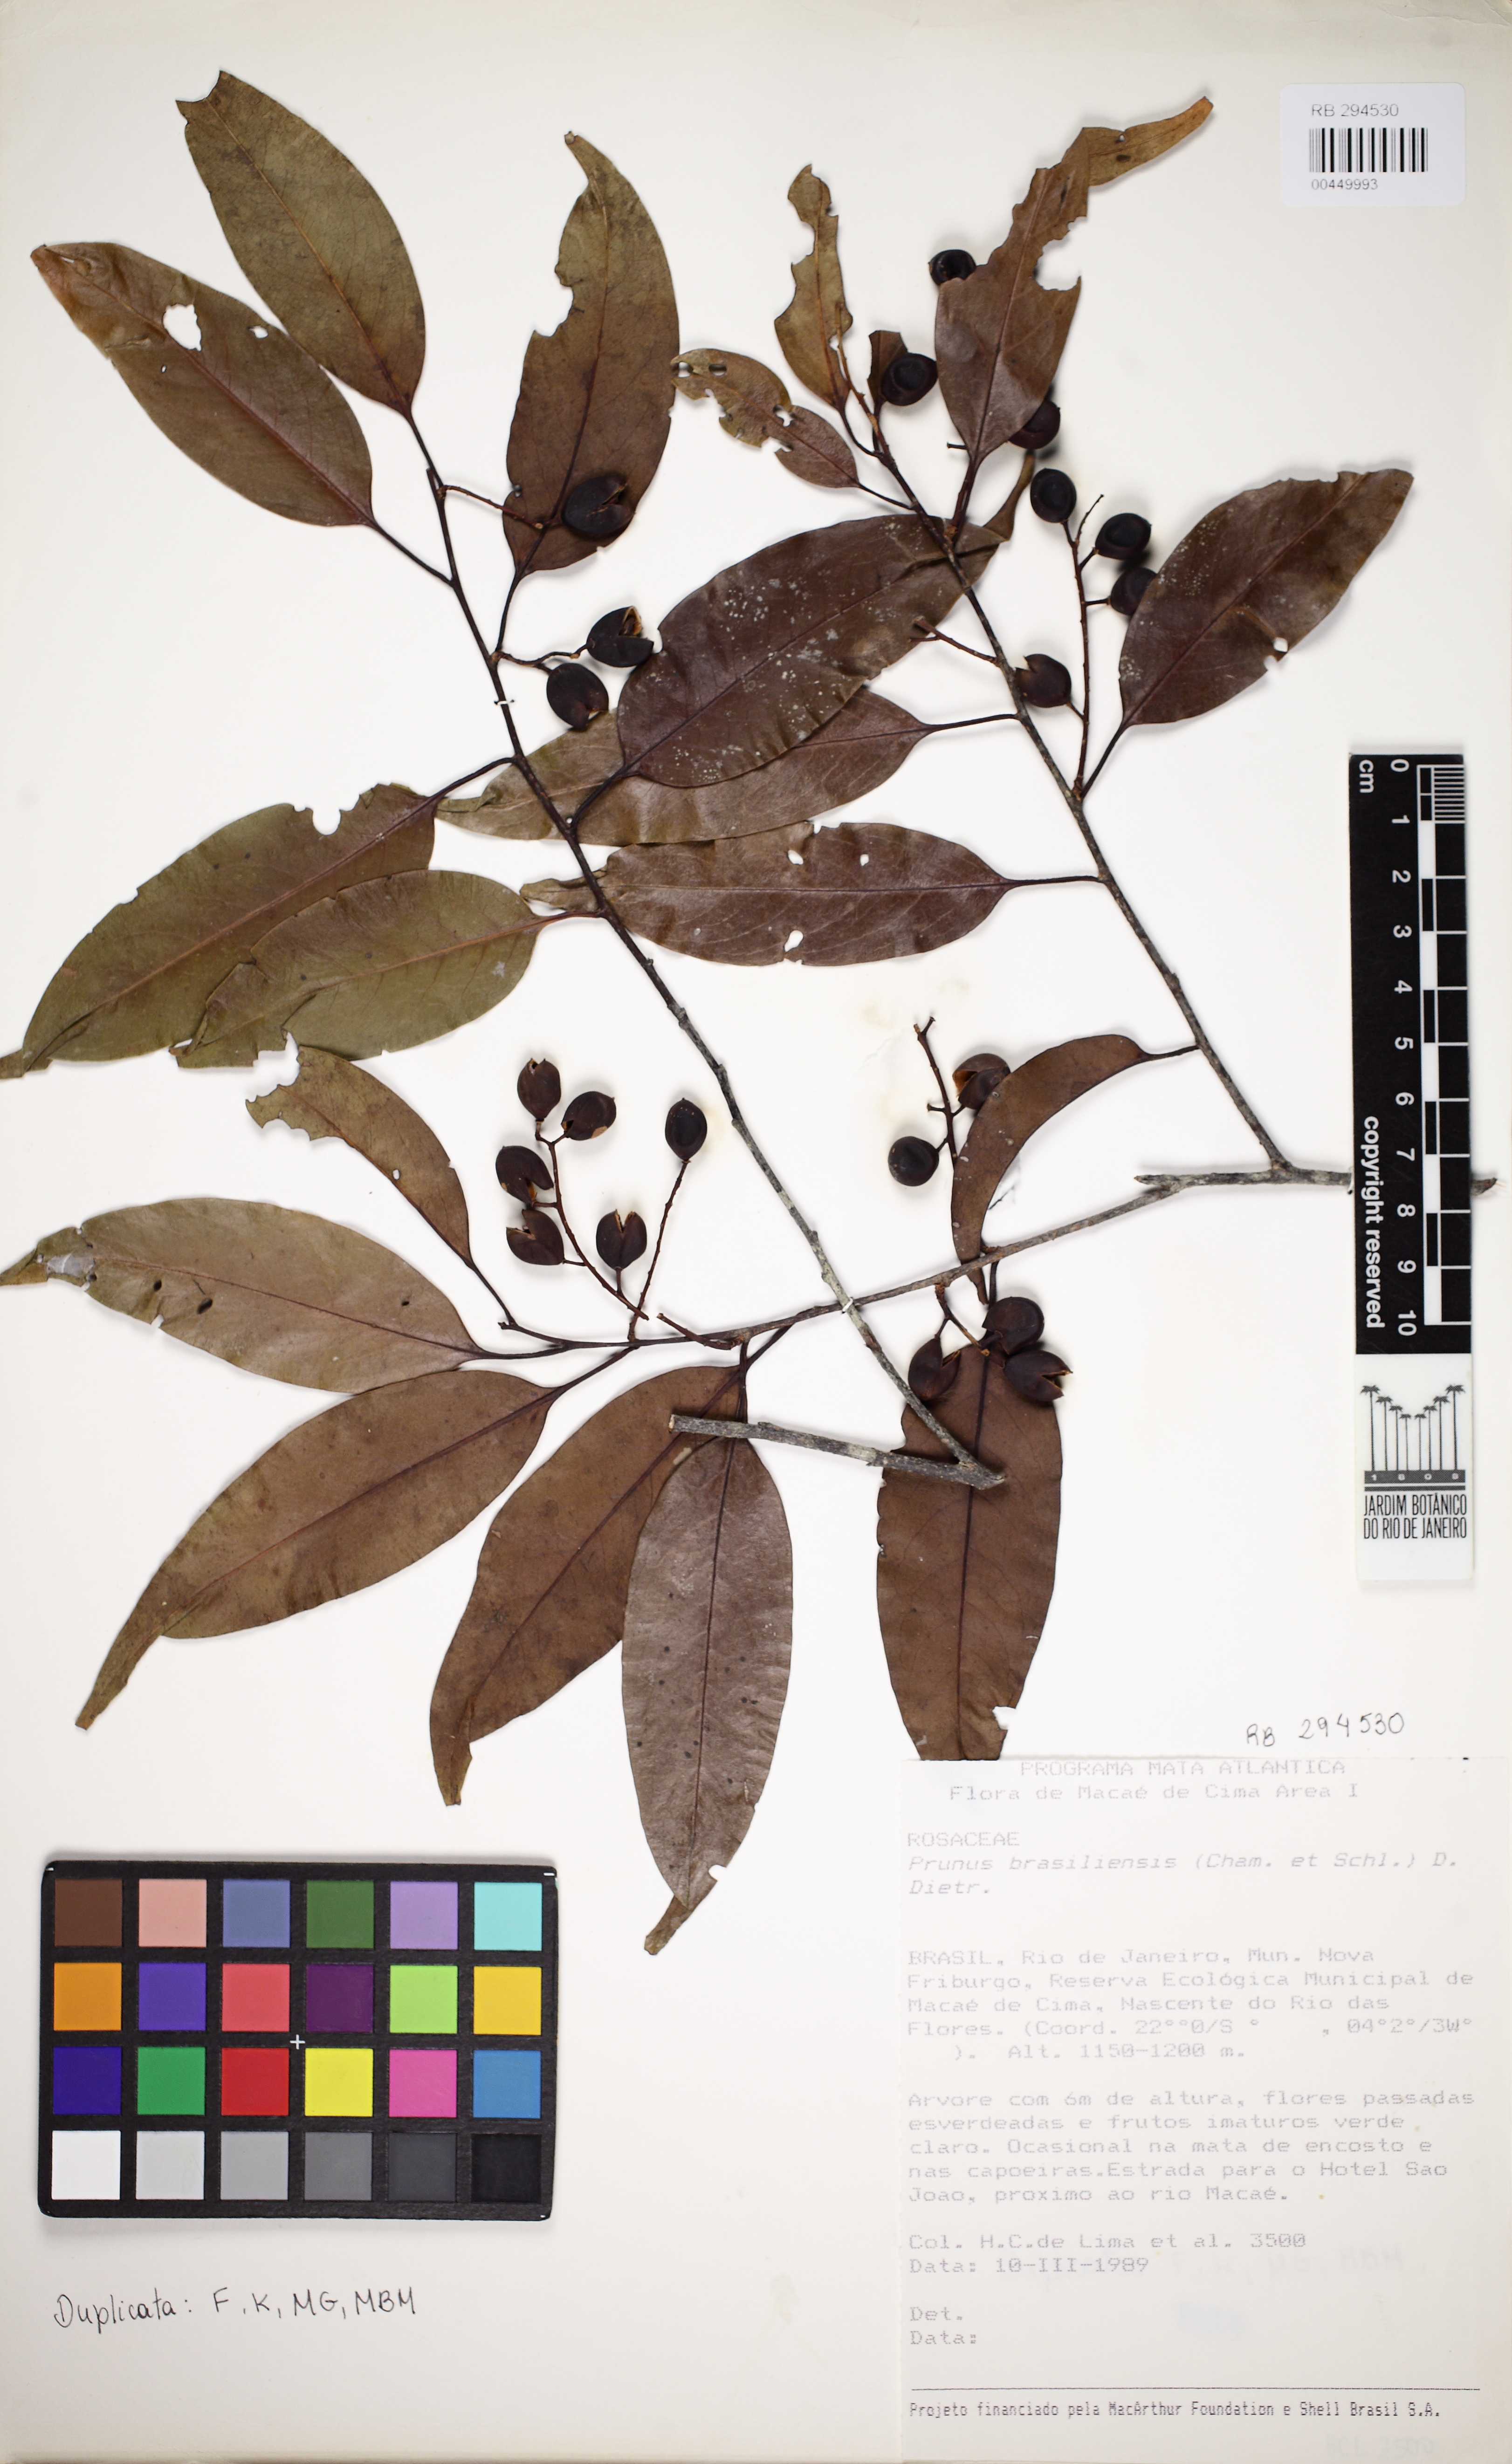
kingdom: Plantae
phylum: Tracheophyta
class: Magnoliopsida
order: Rosales
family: Rosaceae
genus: Prunus
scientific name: Prunus brasiliensis
